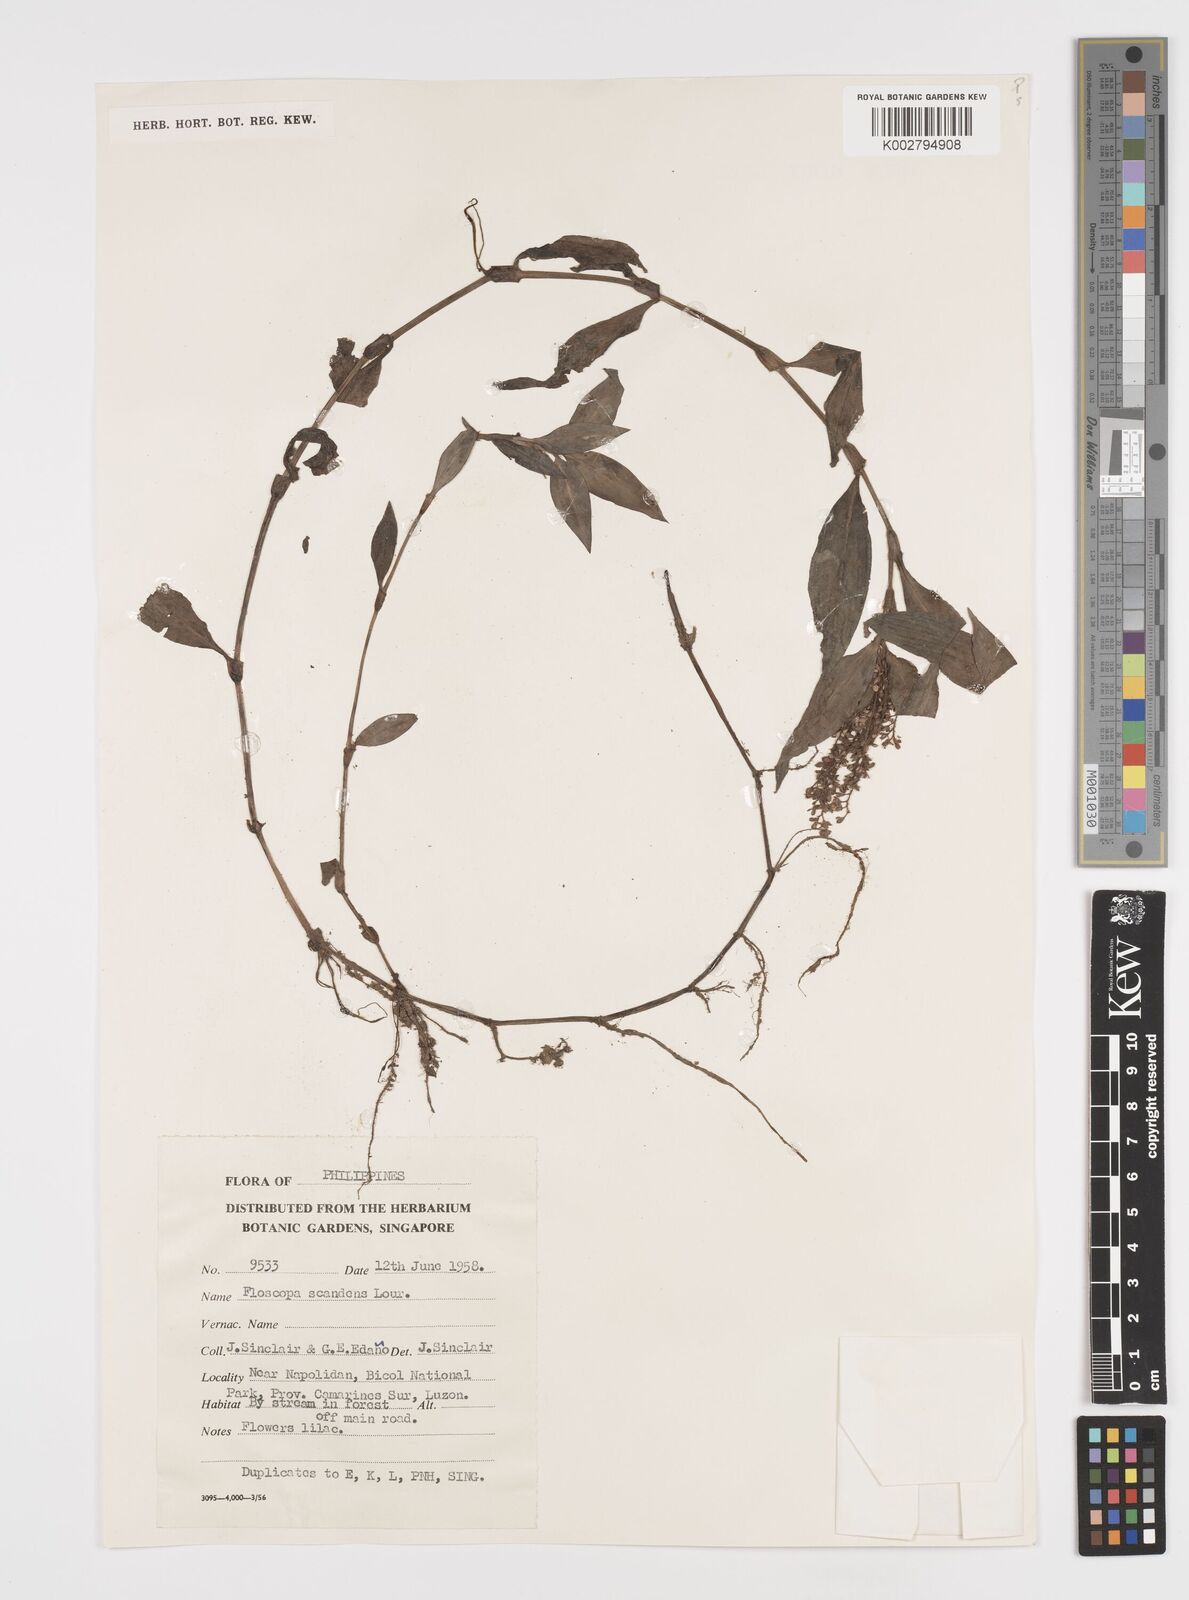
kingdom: Plantae
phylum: Tracheophyta
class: Liliopsida
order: Commelinales
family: Commelinaceae
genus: Floscopa
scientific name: Floscopa scandens
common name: Climbing flower cup
